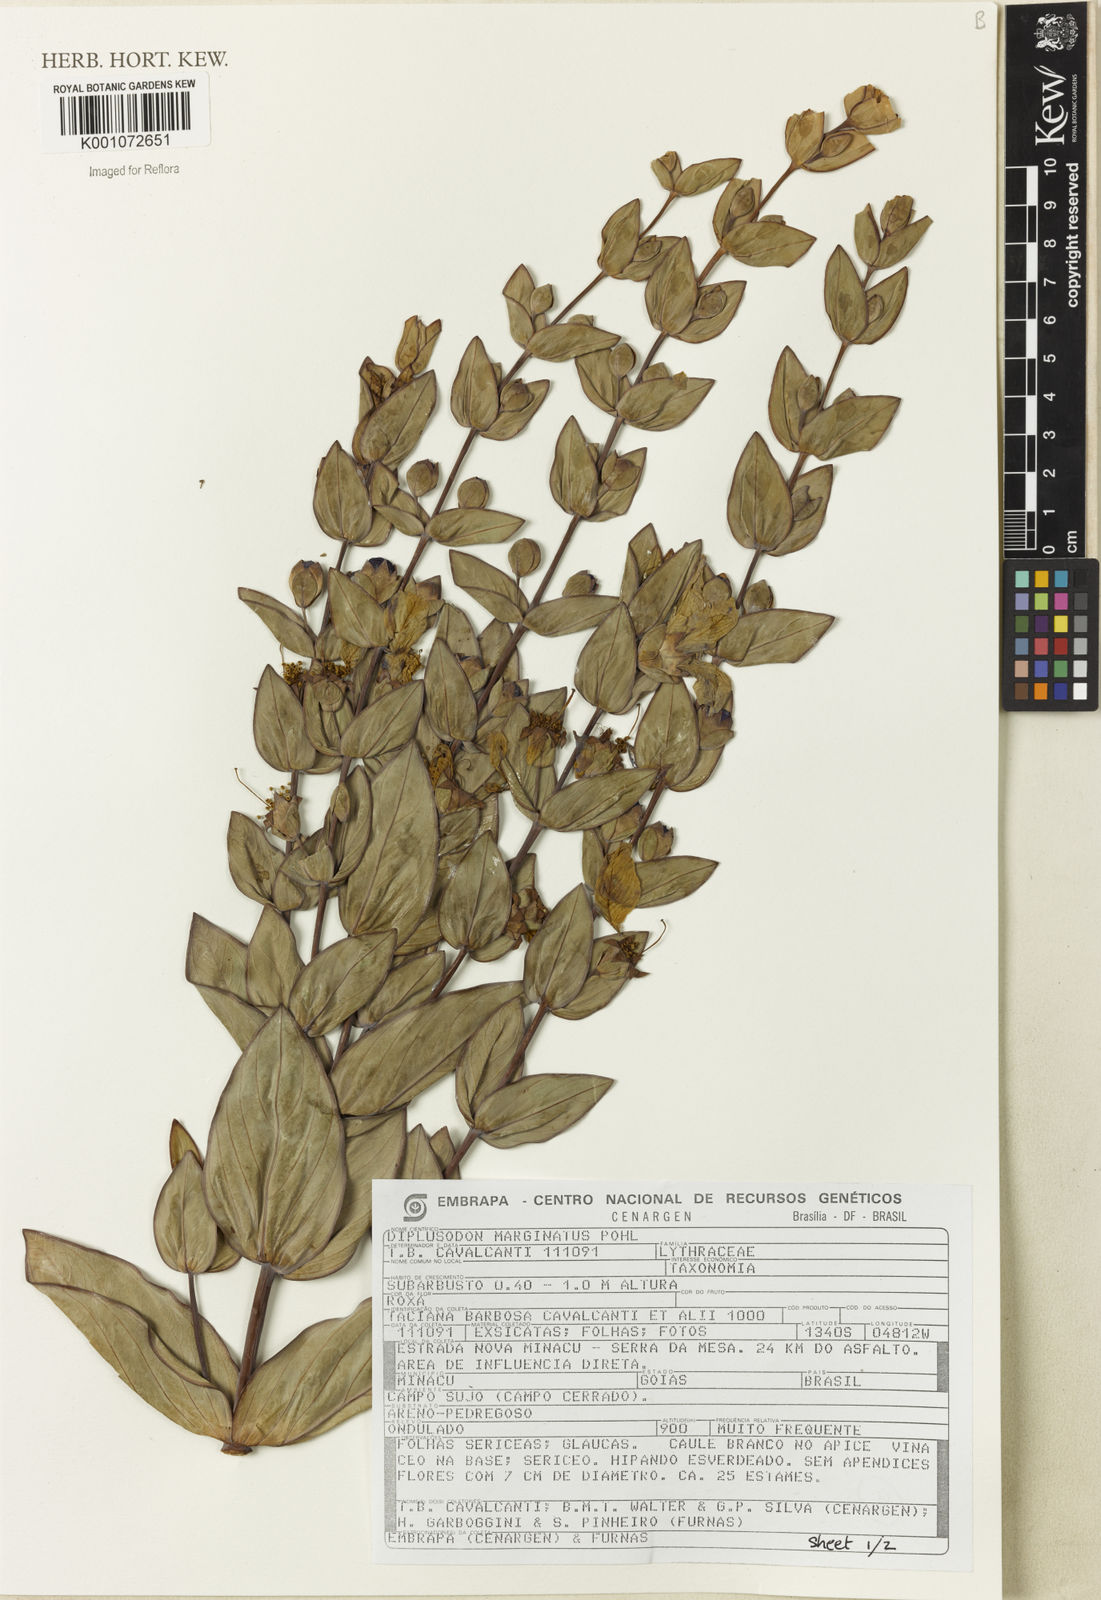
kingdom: Plantae
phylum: Tracheophyta
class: Magnoliopsida
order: Myrtales
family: Lythraceae
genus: Diplusodon
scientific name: Diplusodon marginatus
